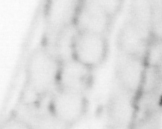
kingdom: Animalia
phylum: Chordata
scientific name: Chordata
